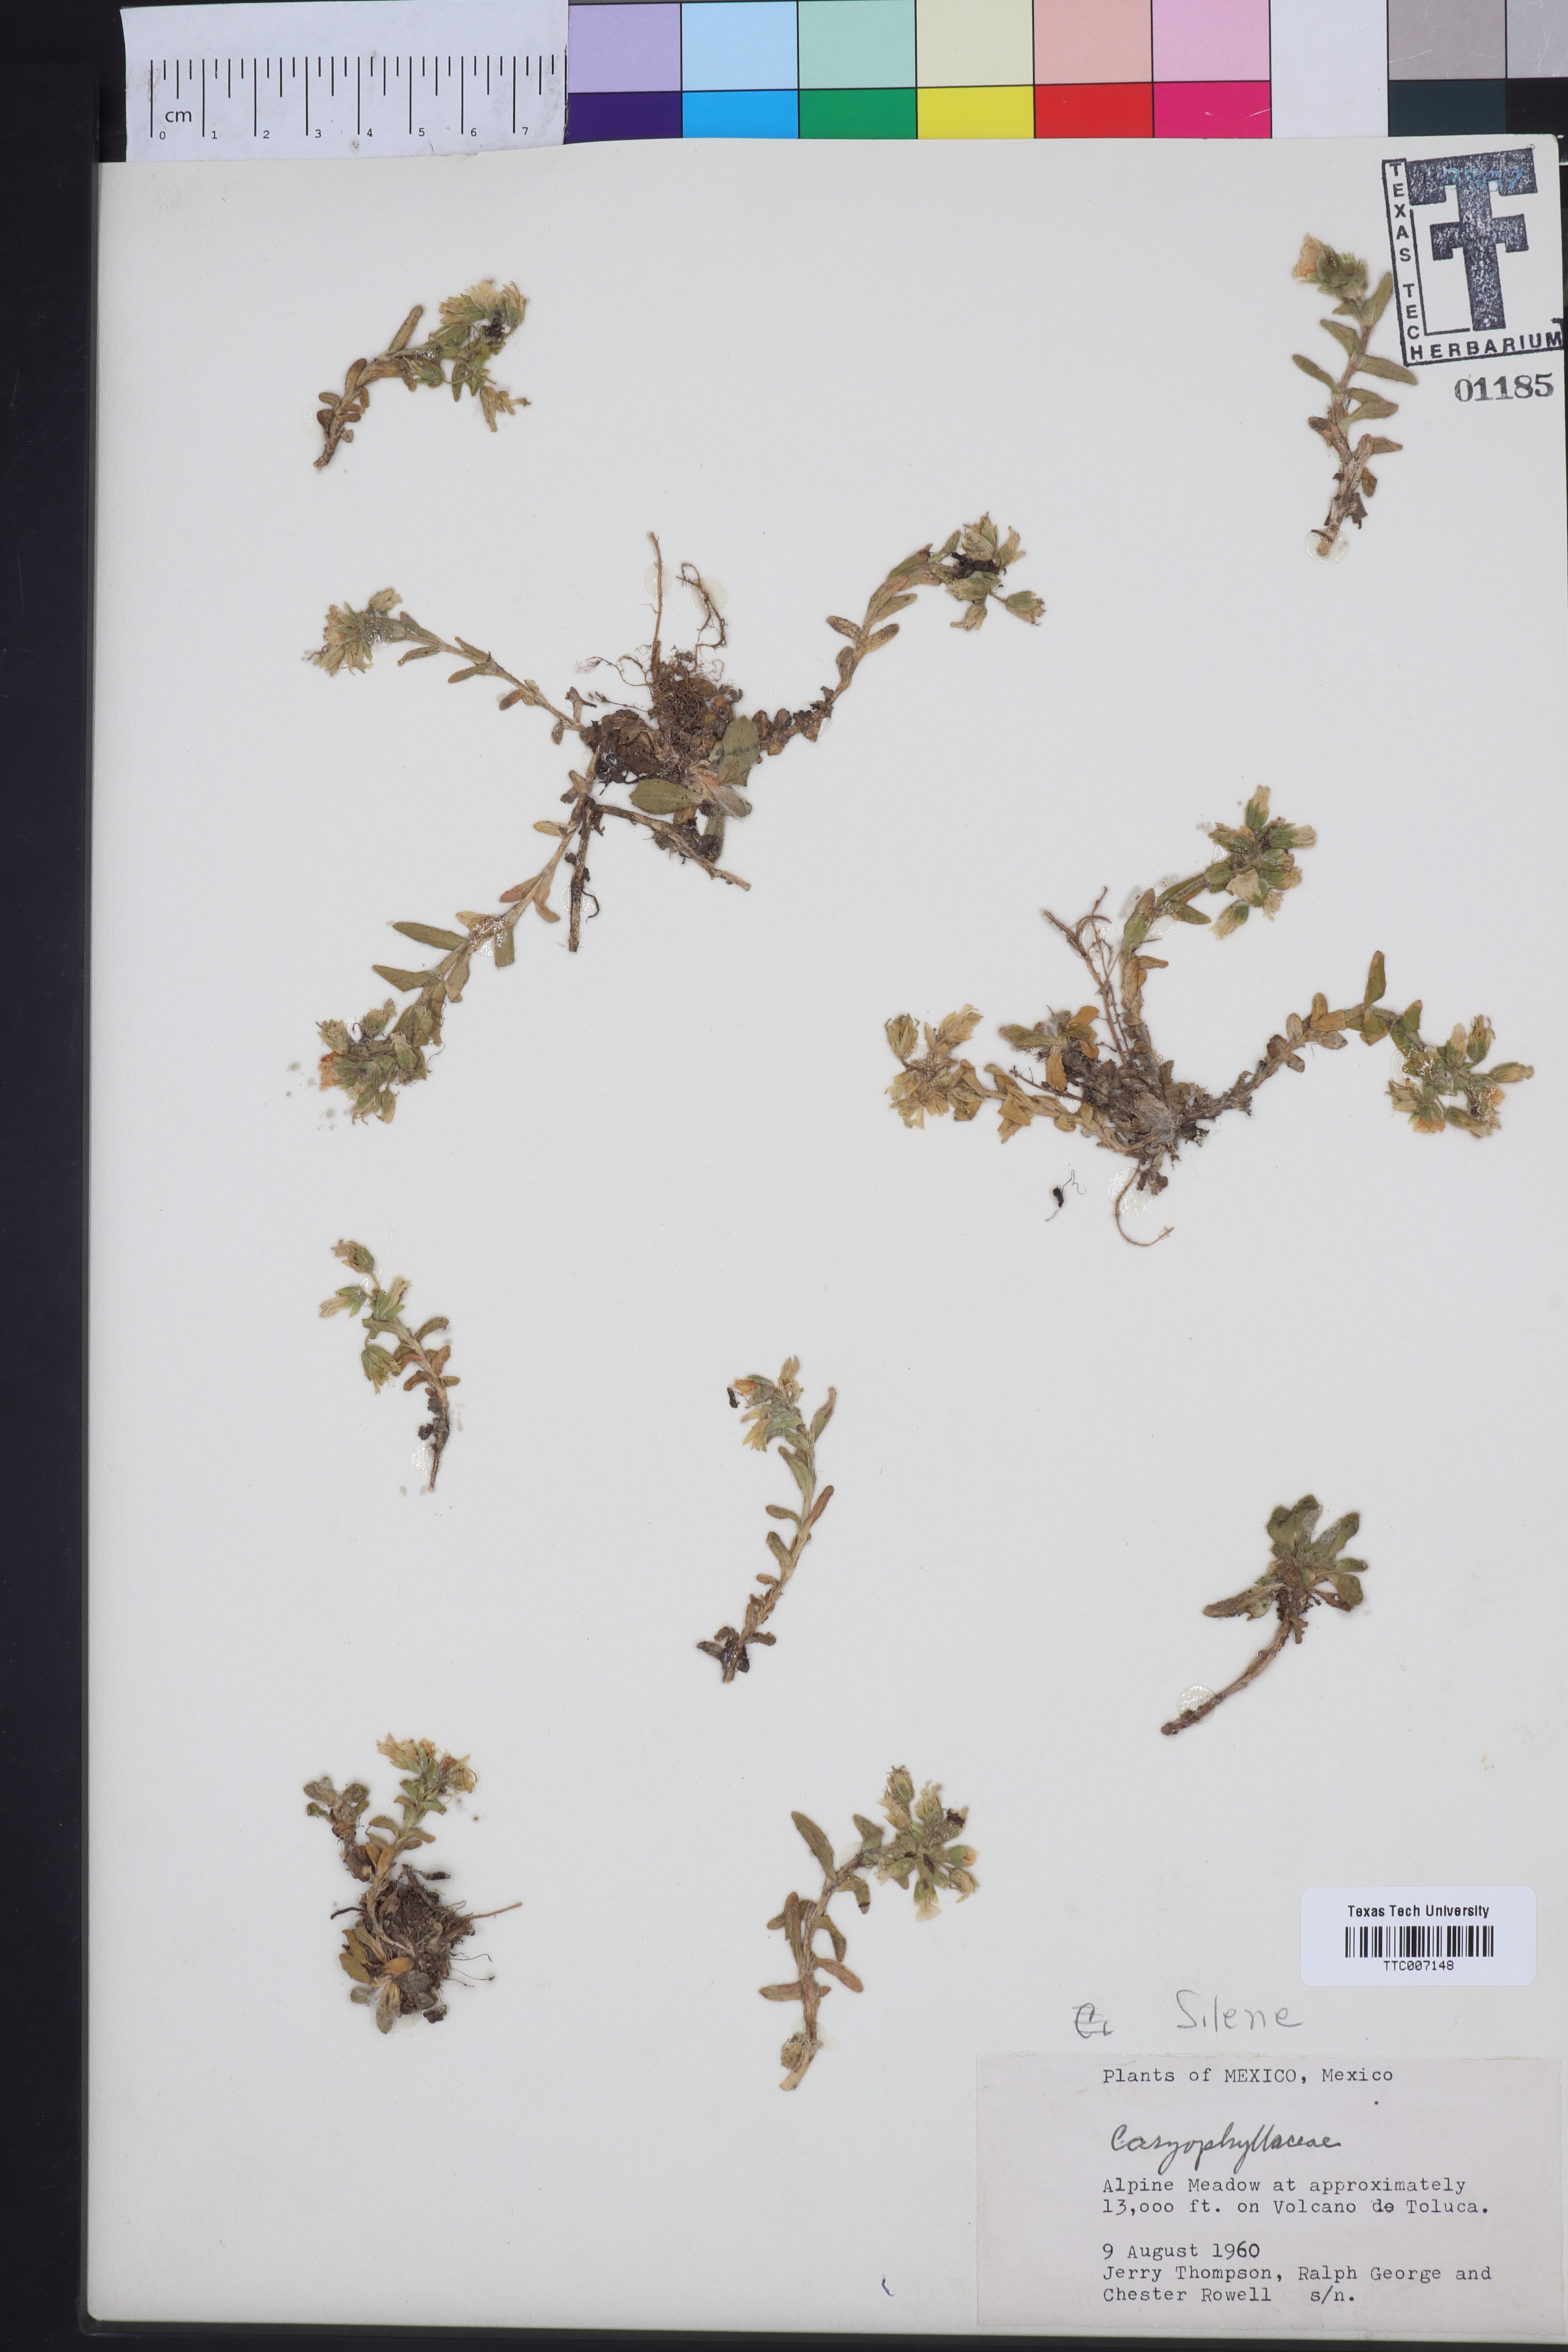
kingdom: Plantae
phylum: Tracheophyta
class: Magnoliopsida
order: Caryophyllales
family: Caryophyllaceae
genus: Silene
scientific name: Silene
